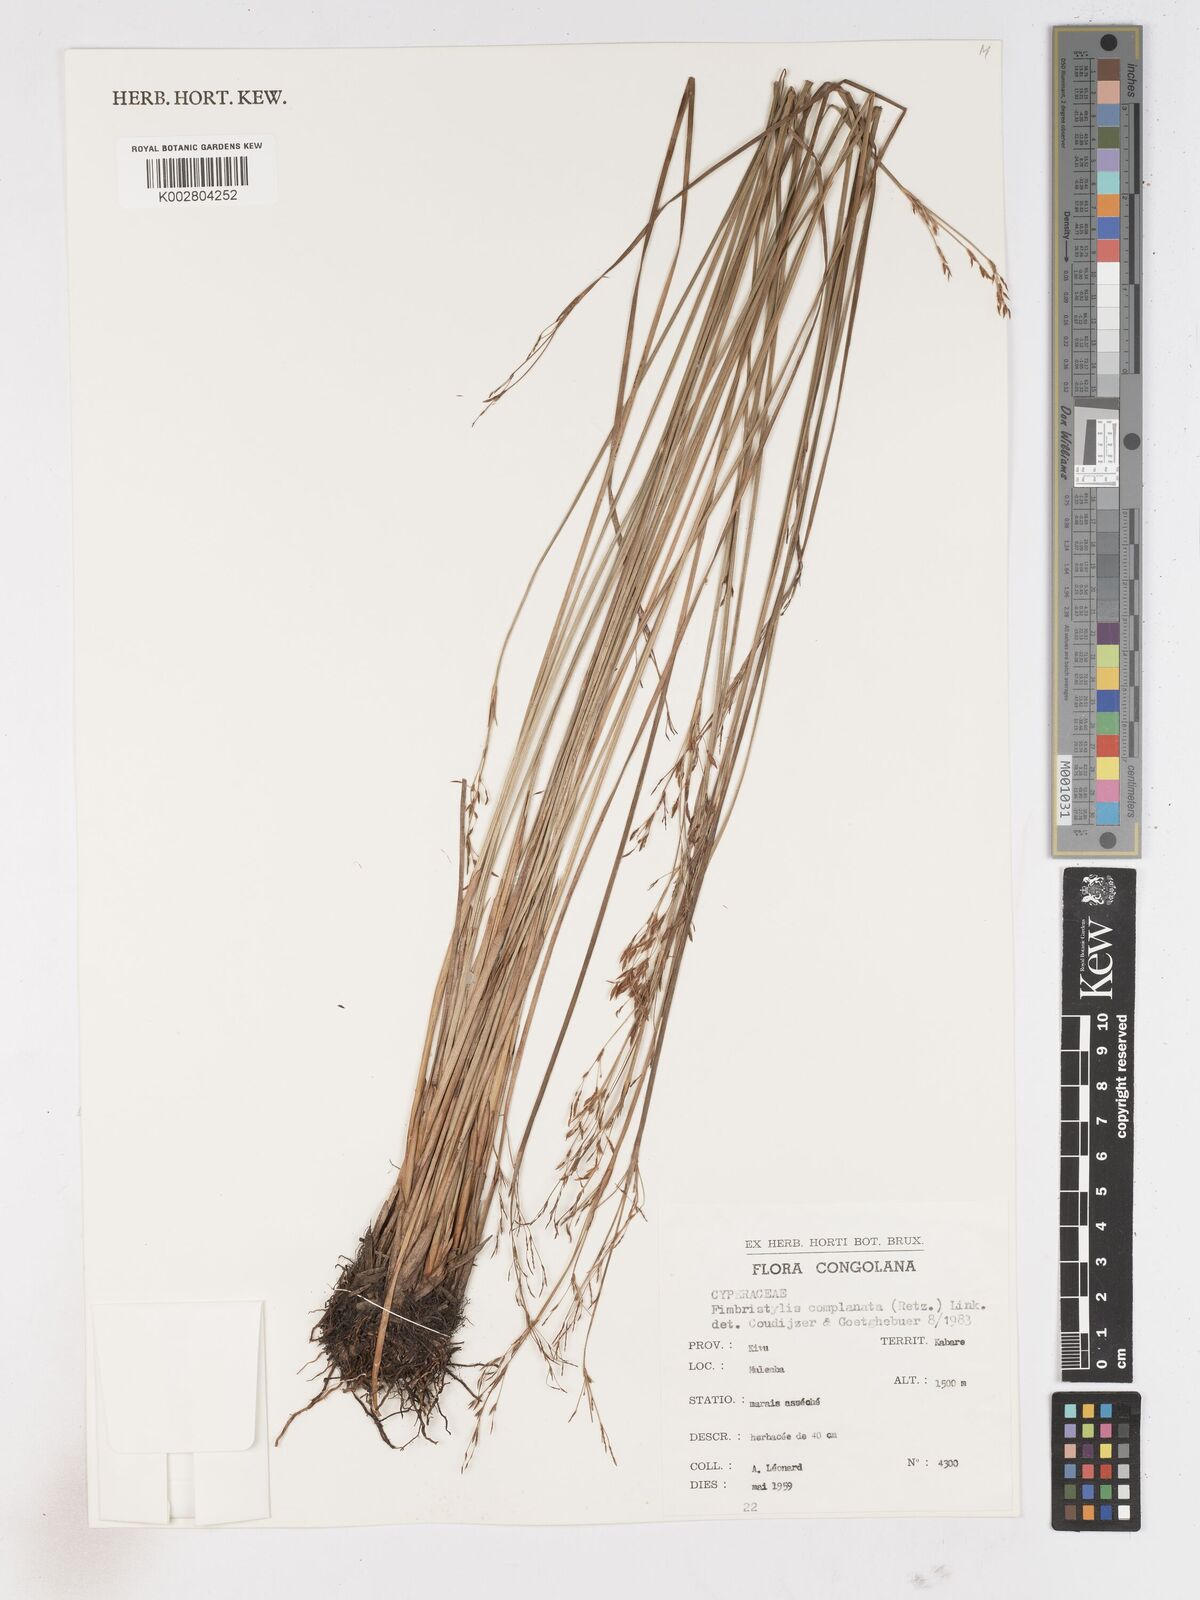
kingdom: Plantae
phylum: Tracheophyta
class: Liliopsida
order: Poales
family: Cyperaceae
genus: Fimbristylis
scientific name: Fimbristylis complanata
